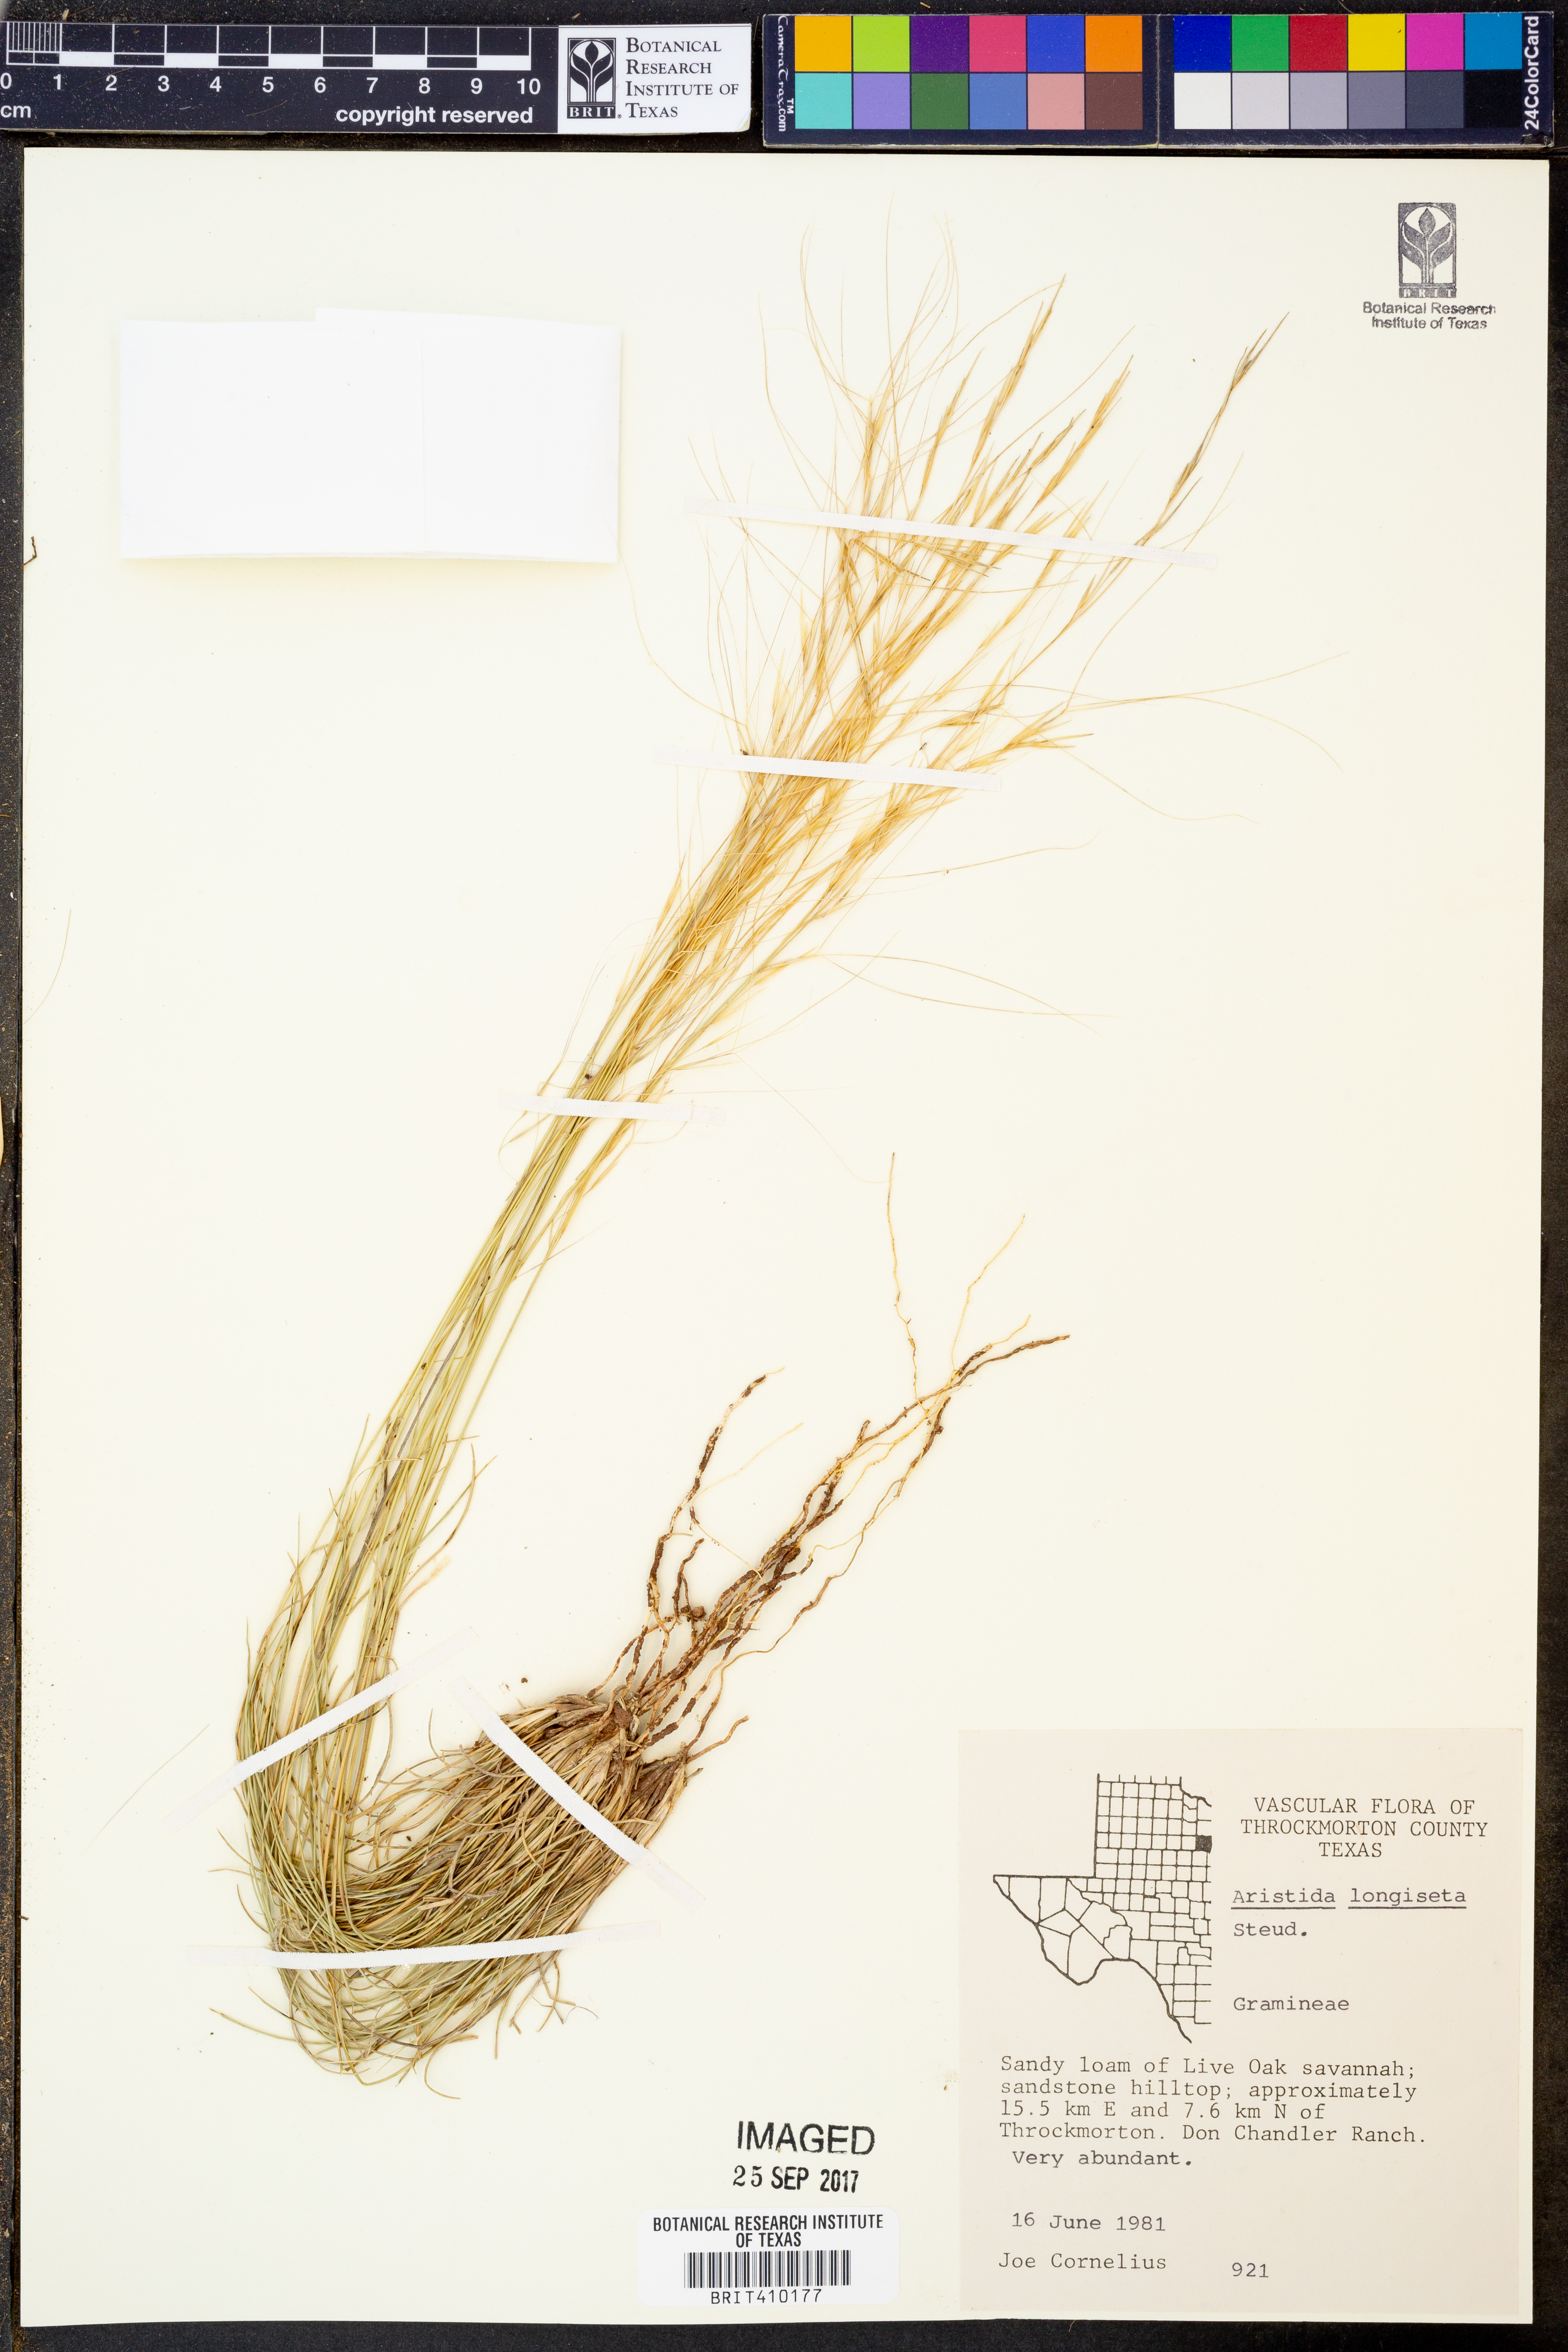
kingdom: Plantae
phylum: Tracheophyta
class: Liliopsida
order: Poales
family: Poaceae
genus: Aristida
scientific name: Aristida longiseta
